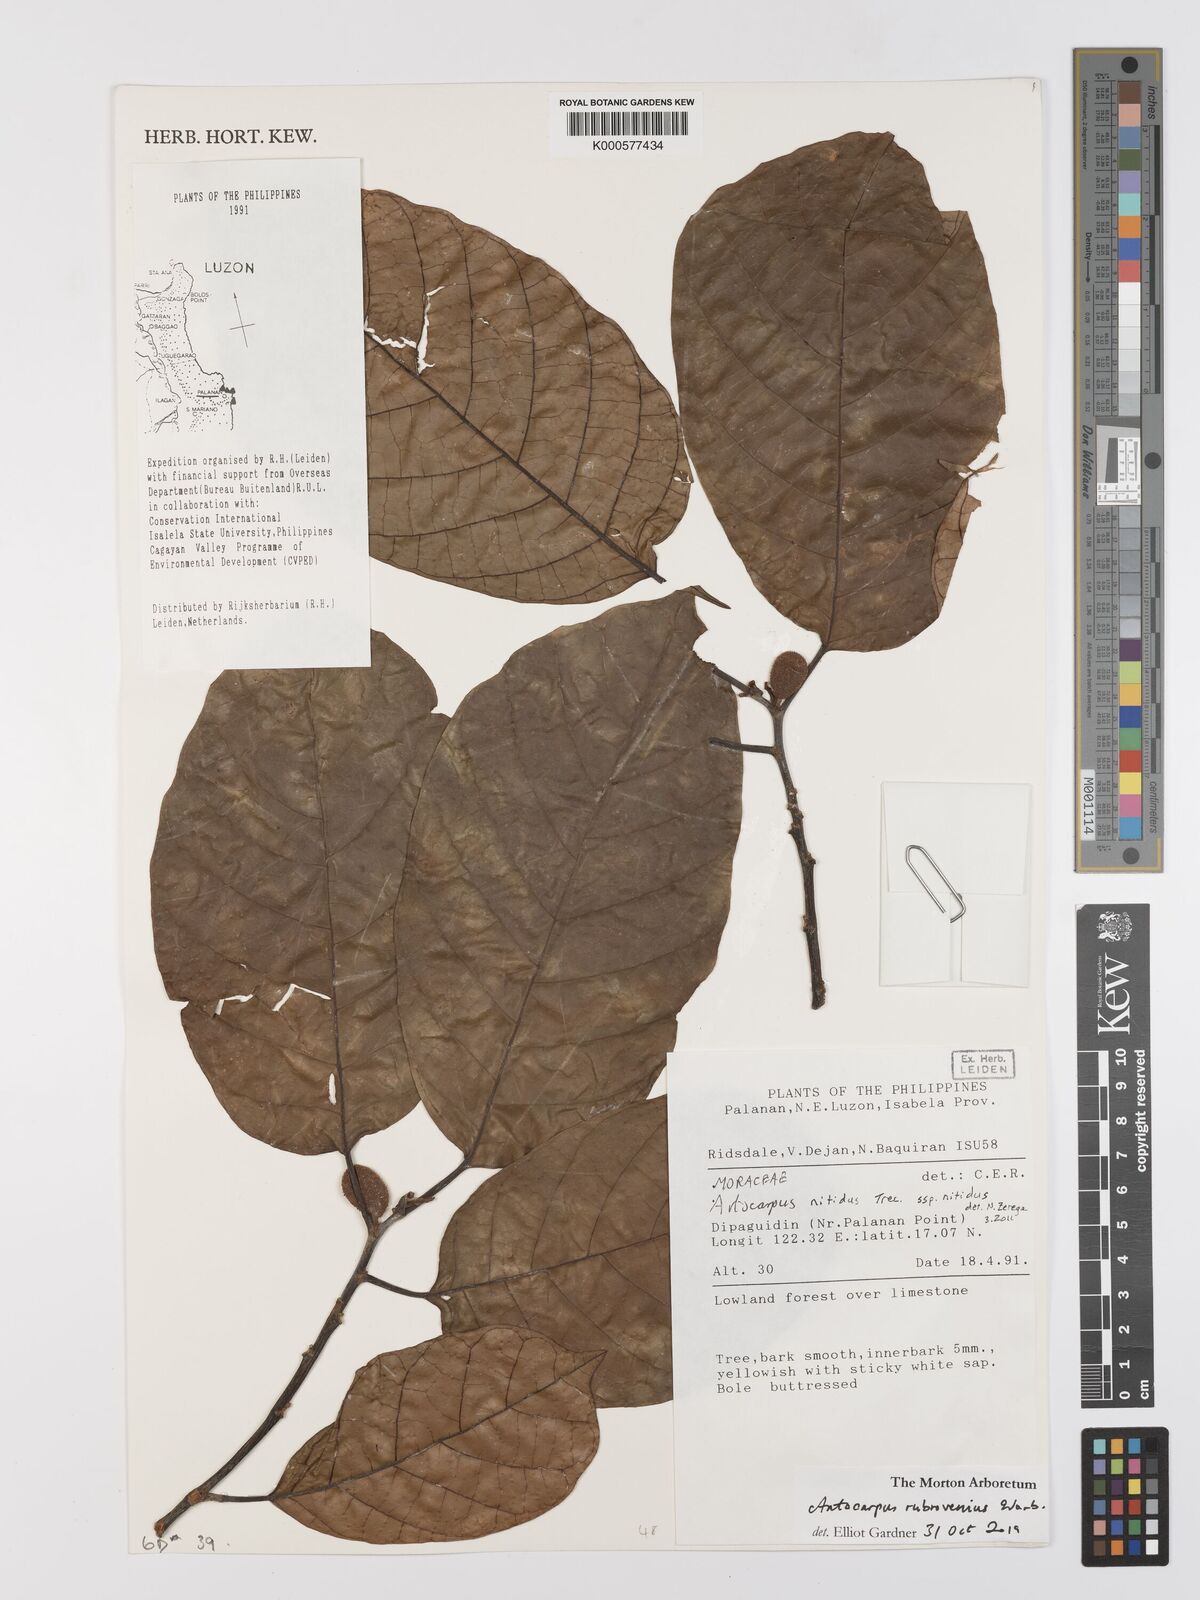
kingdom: Plantae
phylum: Tracheophyta
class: Magnoliopsida
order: Rosales
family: Moraceae
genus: Artocarpus
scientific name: Artocarpus
